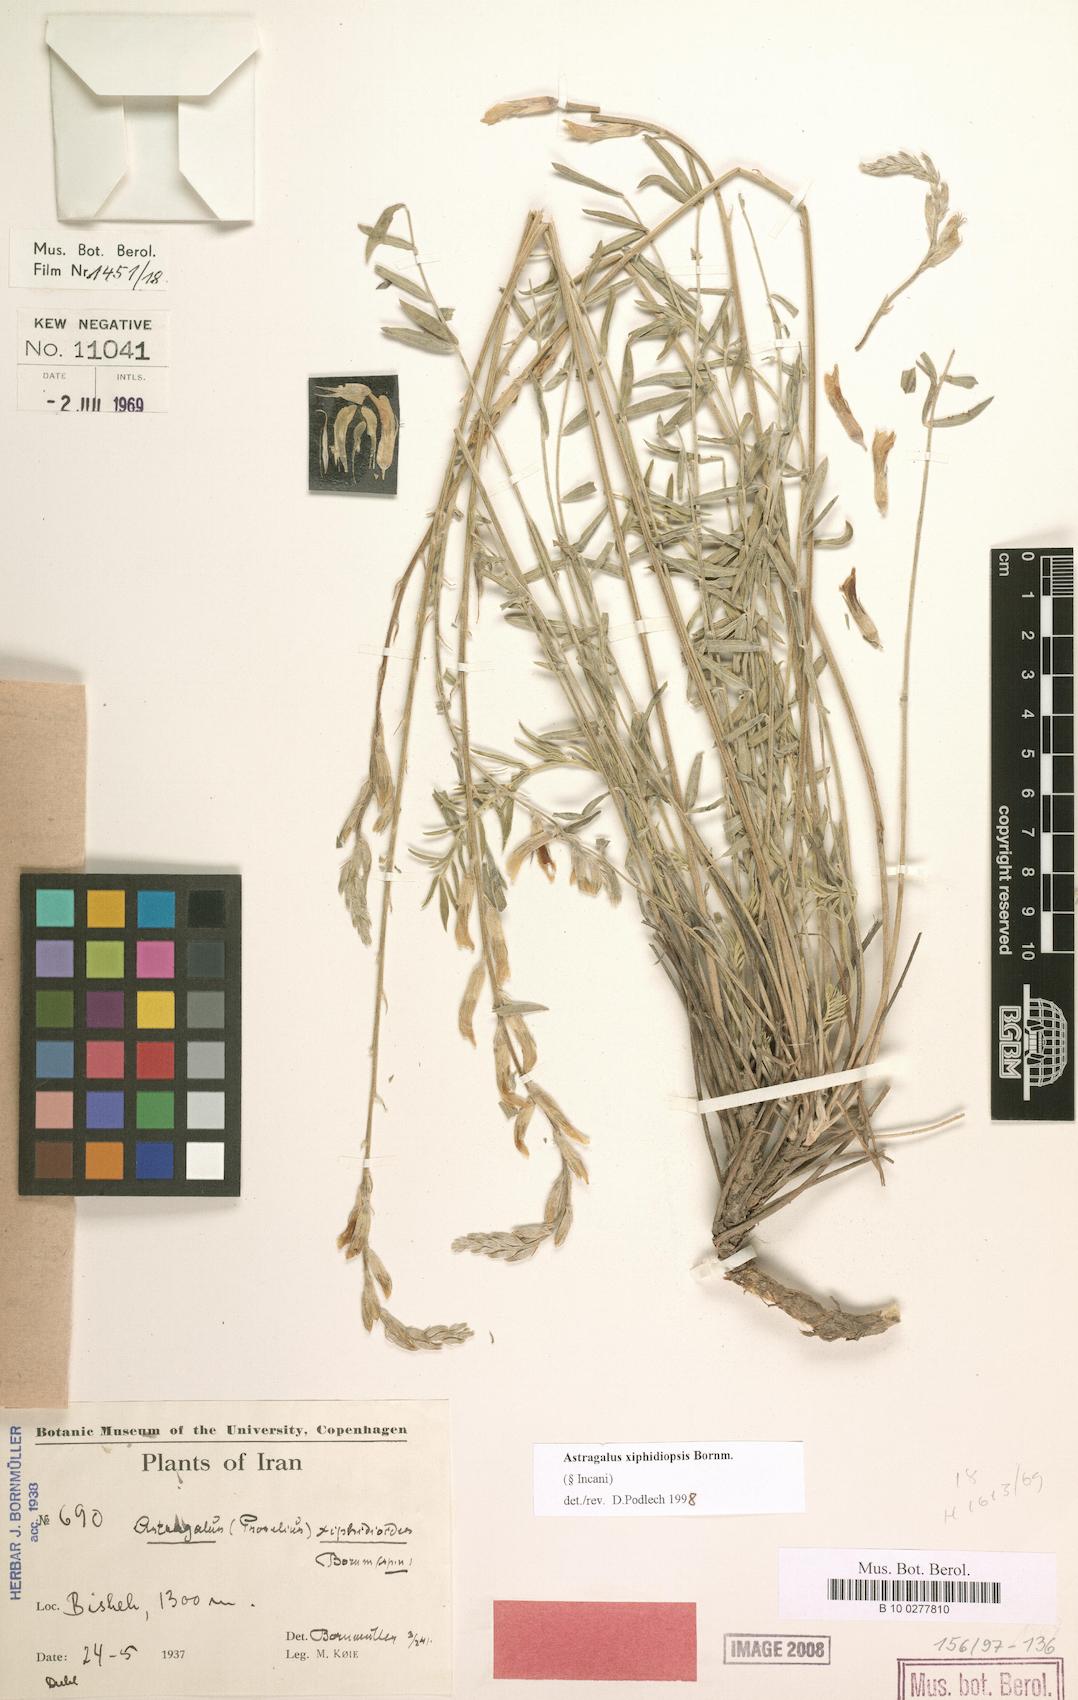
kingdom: Plantae
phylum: Tracheophyta
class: Magnoliopsida
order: Fabales
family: Fabaceae
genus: Astragalus
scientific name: Astragalus xiphidiopsis
